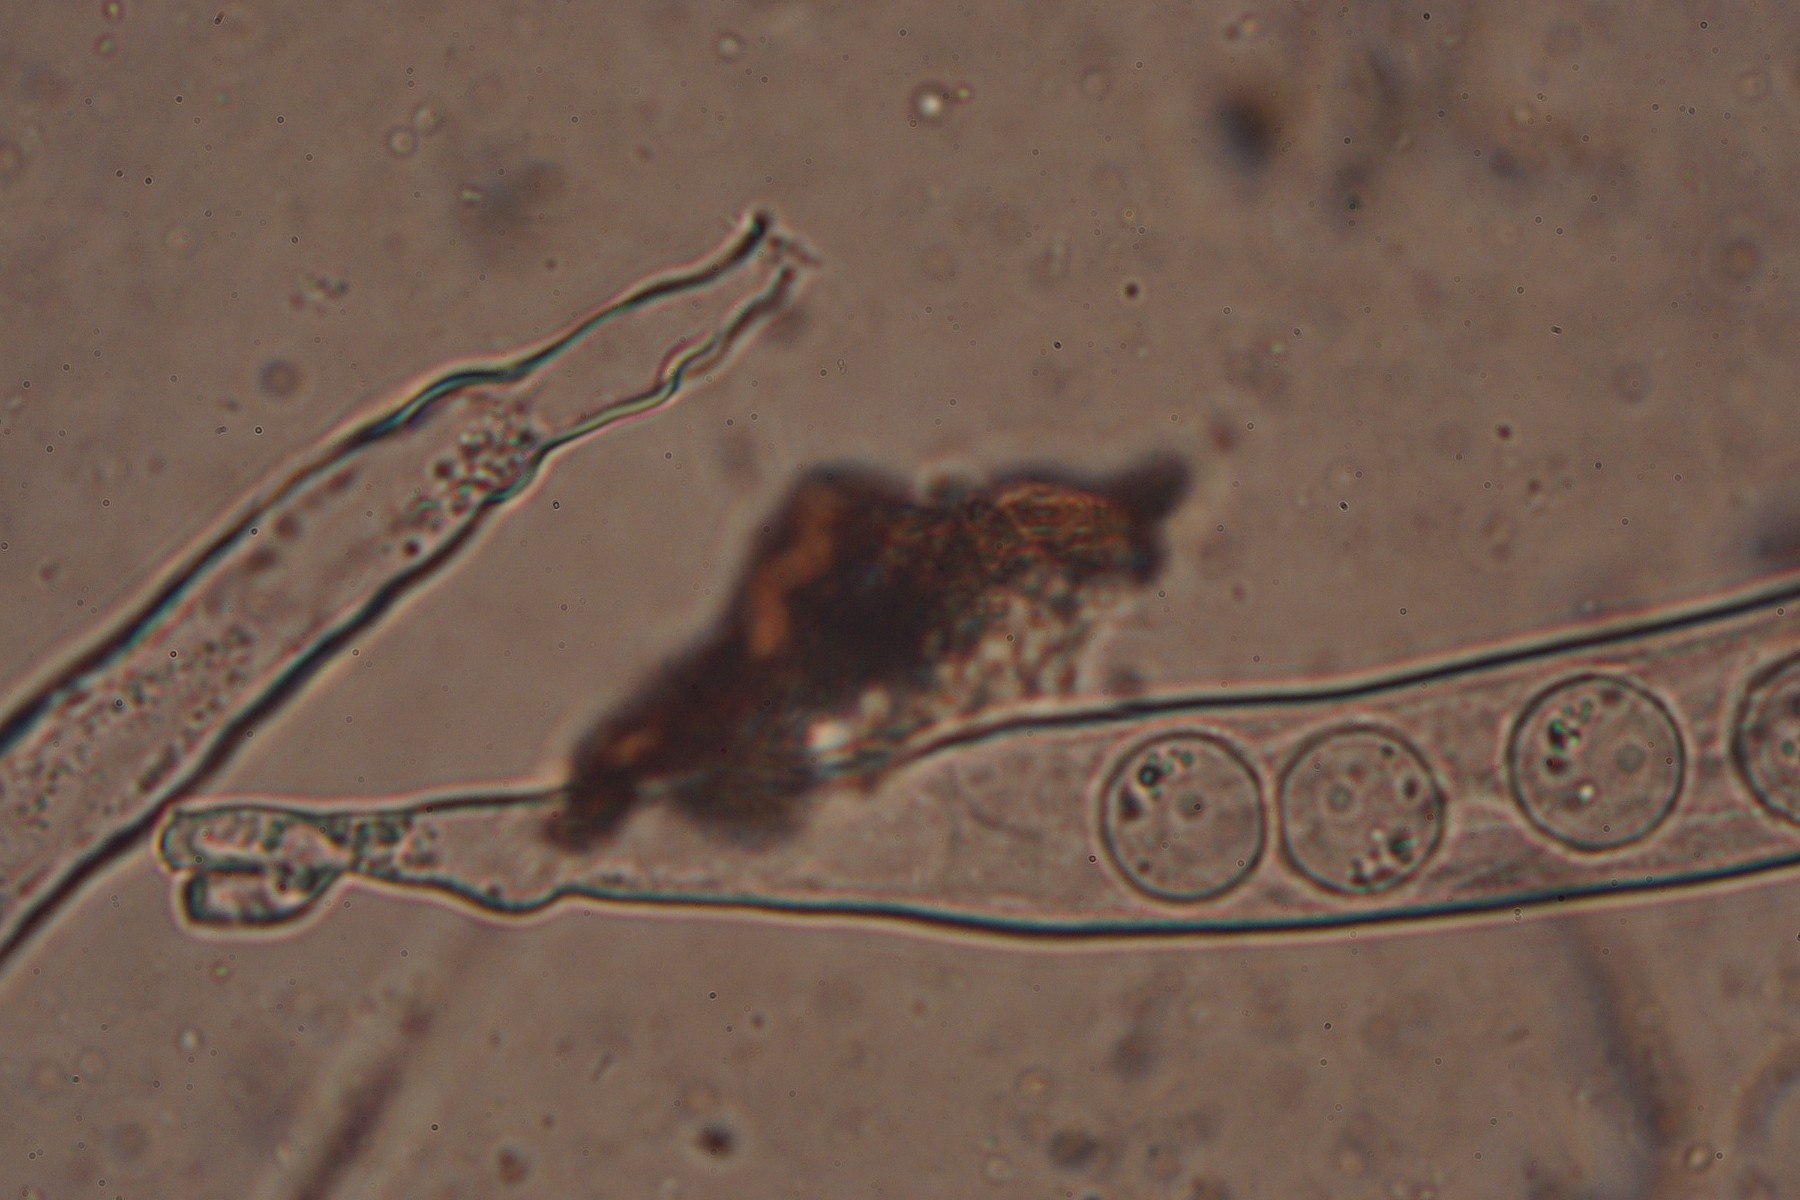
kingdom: Fungi
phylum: Ascomycota
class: Pezizomycetes
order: Pezizales
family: Pyronemataceae
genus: Pulvinula
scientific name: Pulvinula
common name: pudebæger
